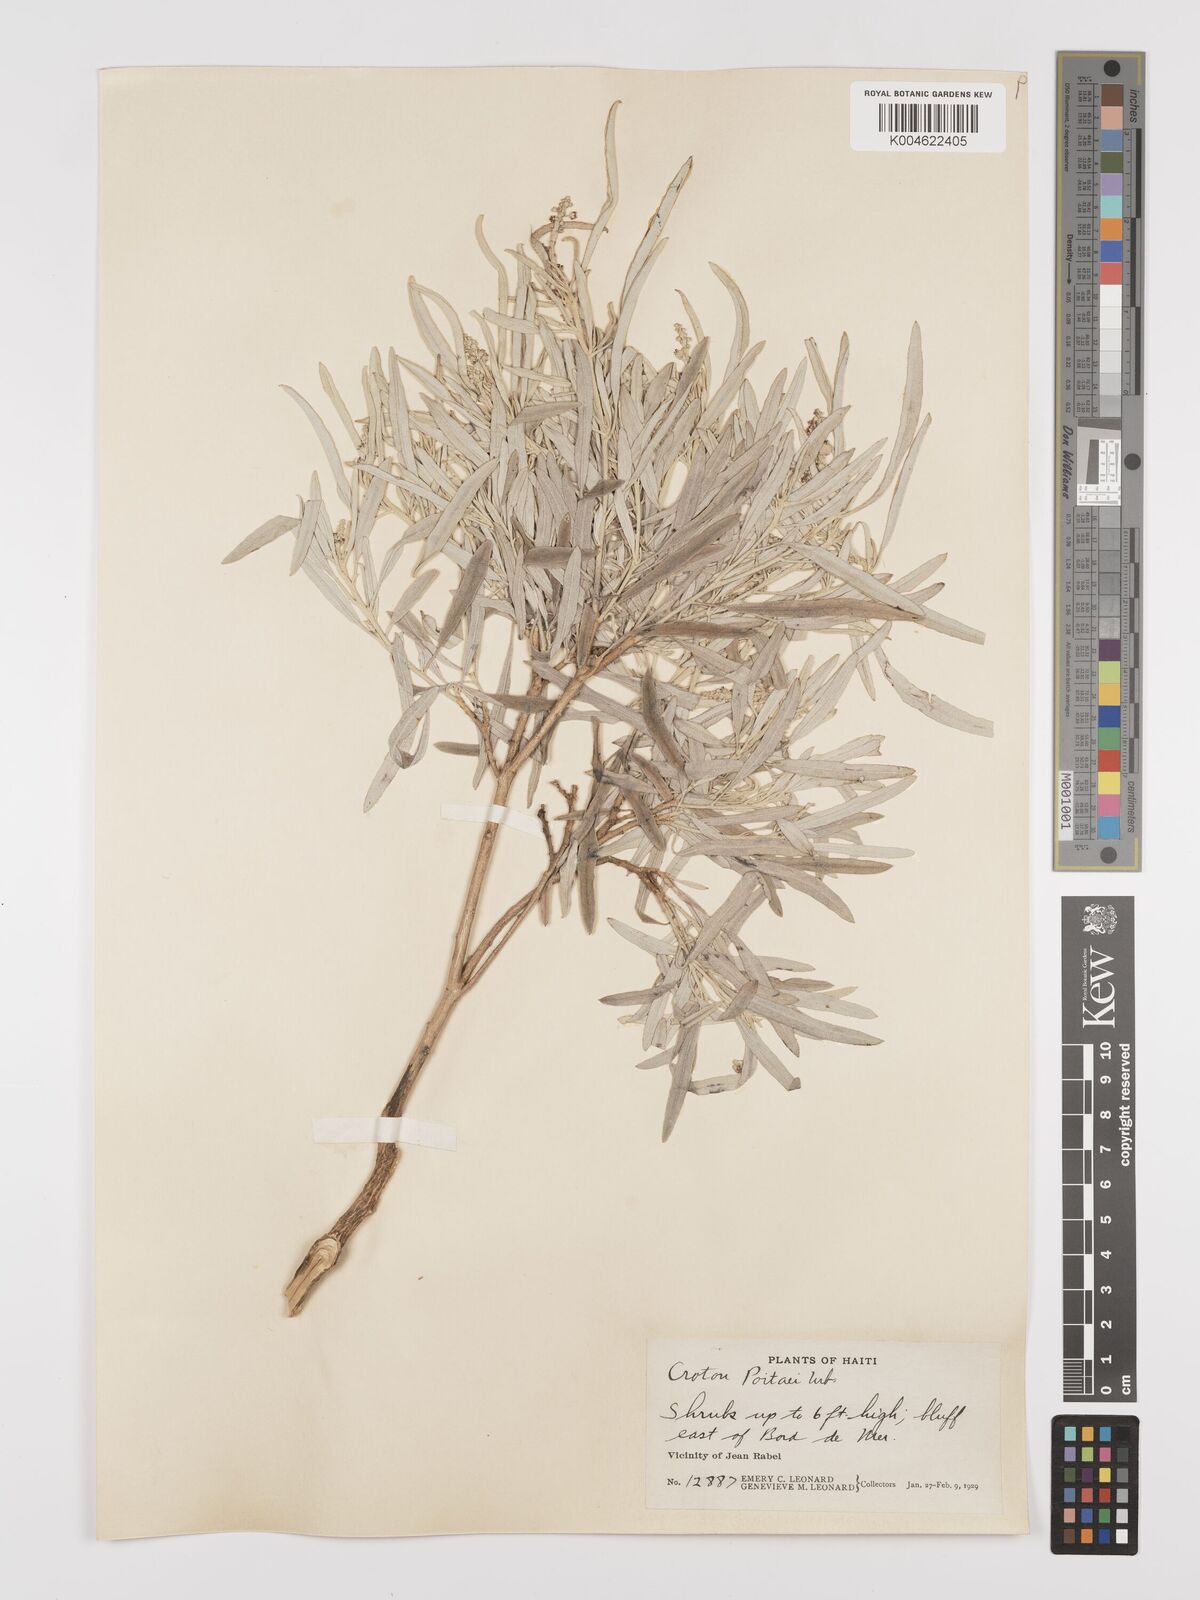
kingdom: Plantae
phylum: Tracheophyta
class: Magnoliopsida
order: Malpighiales
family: Euphorbiaceae
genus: Croton
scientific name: Croton poitaei
